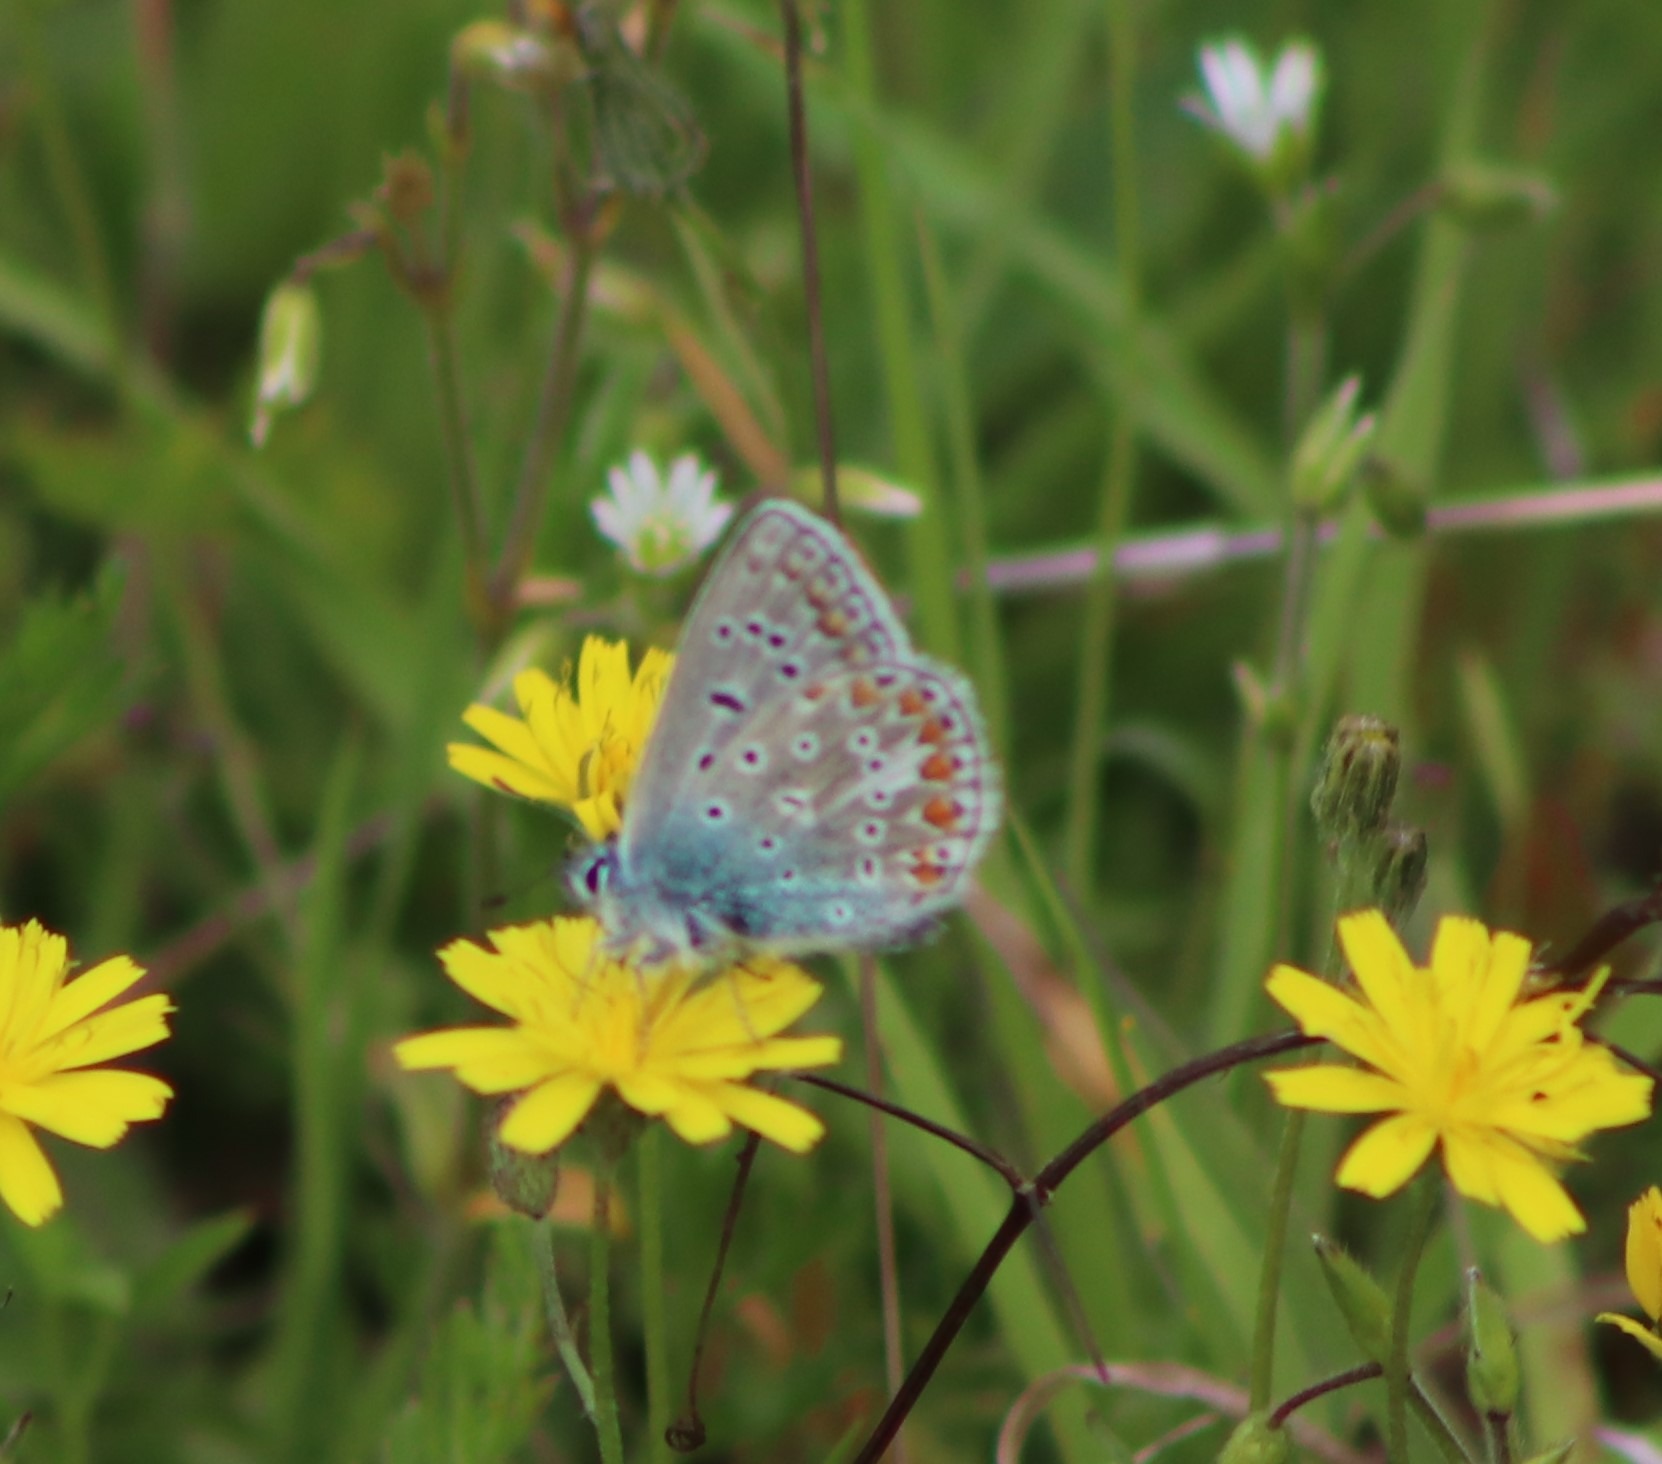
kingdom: Animalia
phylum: Arthropoda
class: Insecta
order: Lepidoptera
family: Lycaenidae
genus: Polyommatus
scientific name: Polyommatus icarus
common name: Almindelig blåfugl
